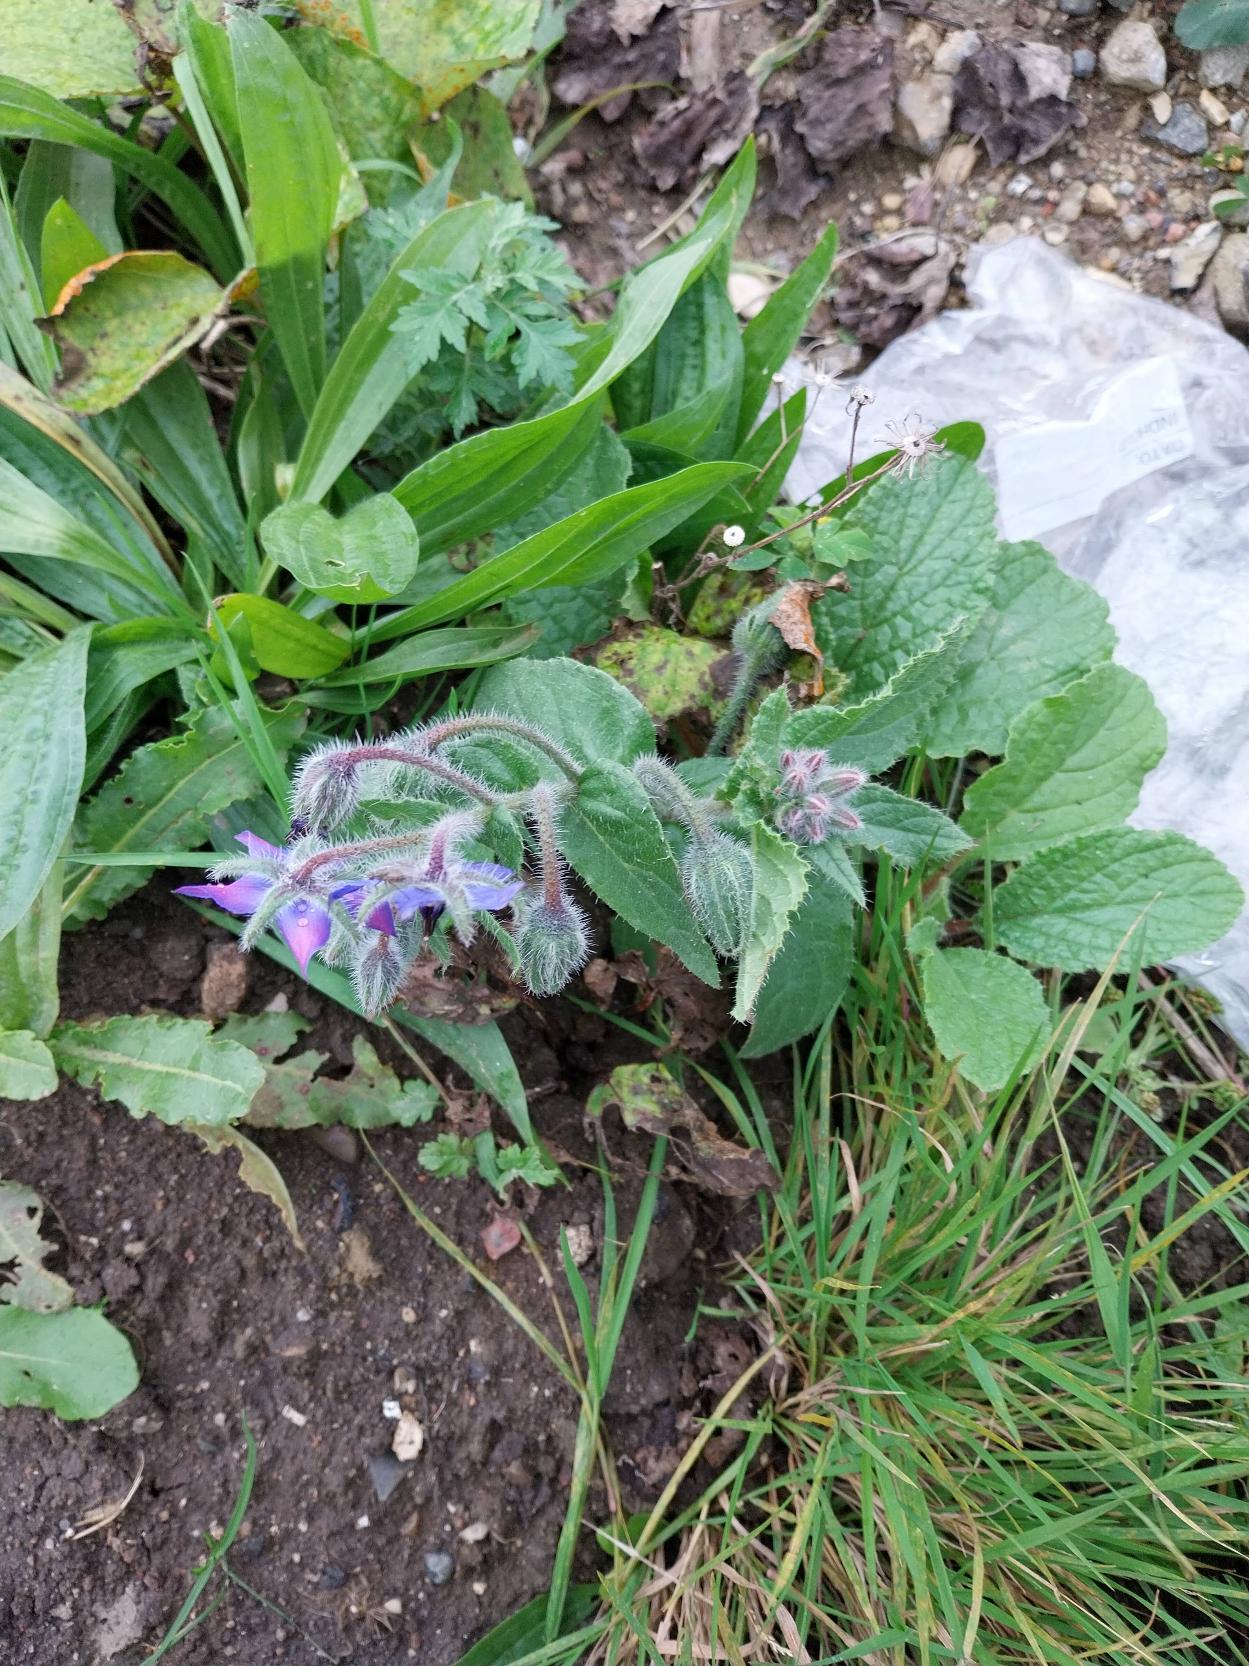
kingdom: Plantae
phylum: Tracheophyta
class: Magnoliopsida
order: Boraginales
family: Boraginaceae
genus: Borago
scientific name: Borago officinalis
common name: Hjulkrone
